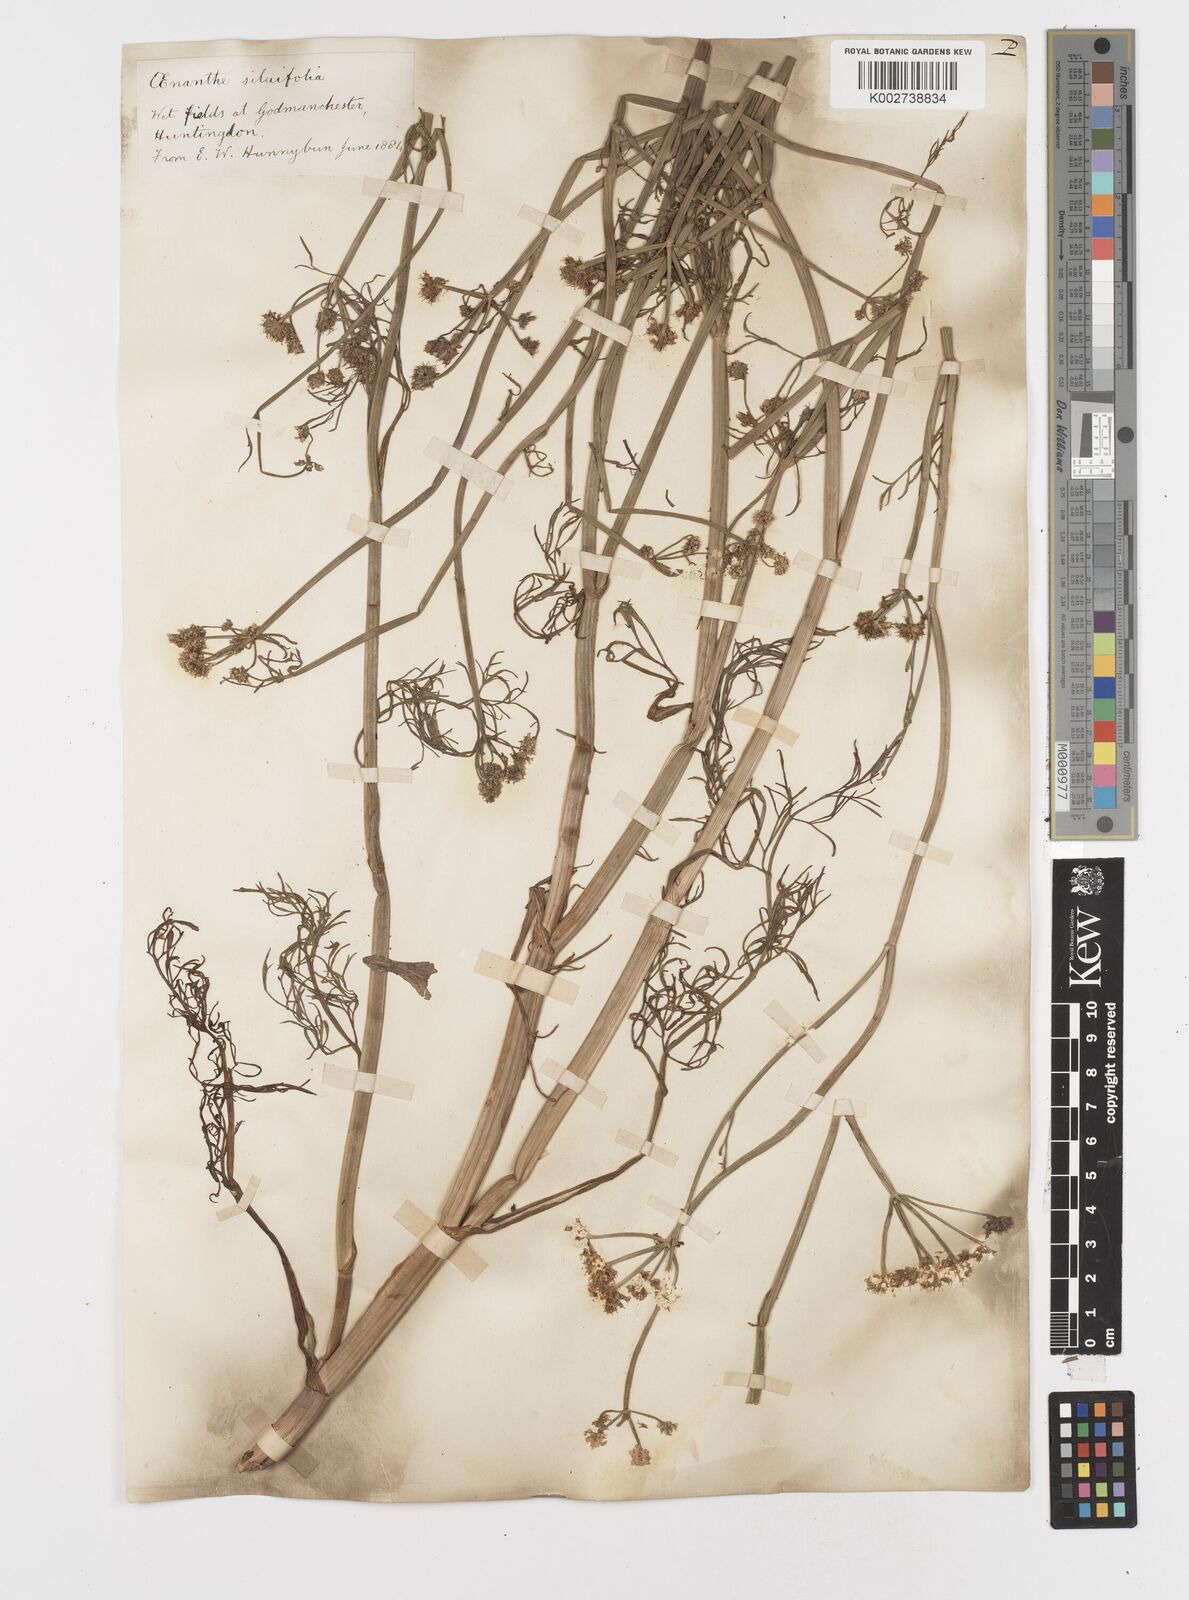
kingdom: Plantae
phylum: Tracheophyta
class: Magnoliopsida
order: Apiales
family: Apiaceae
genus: Oenanthe
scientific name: Oenanthe silaifolia
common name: Narrow-leaved water-dropwort
